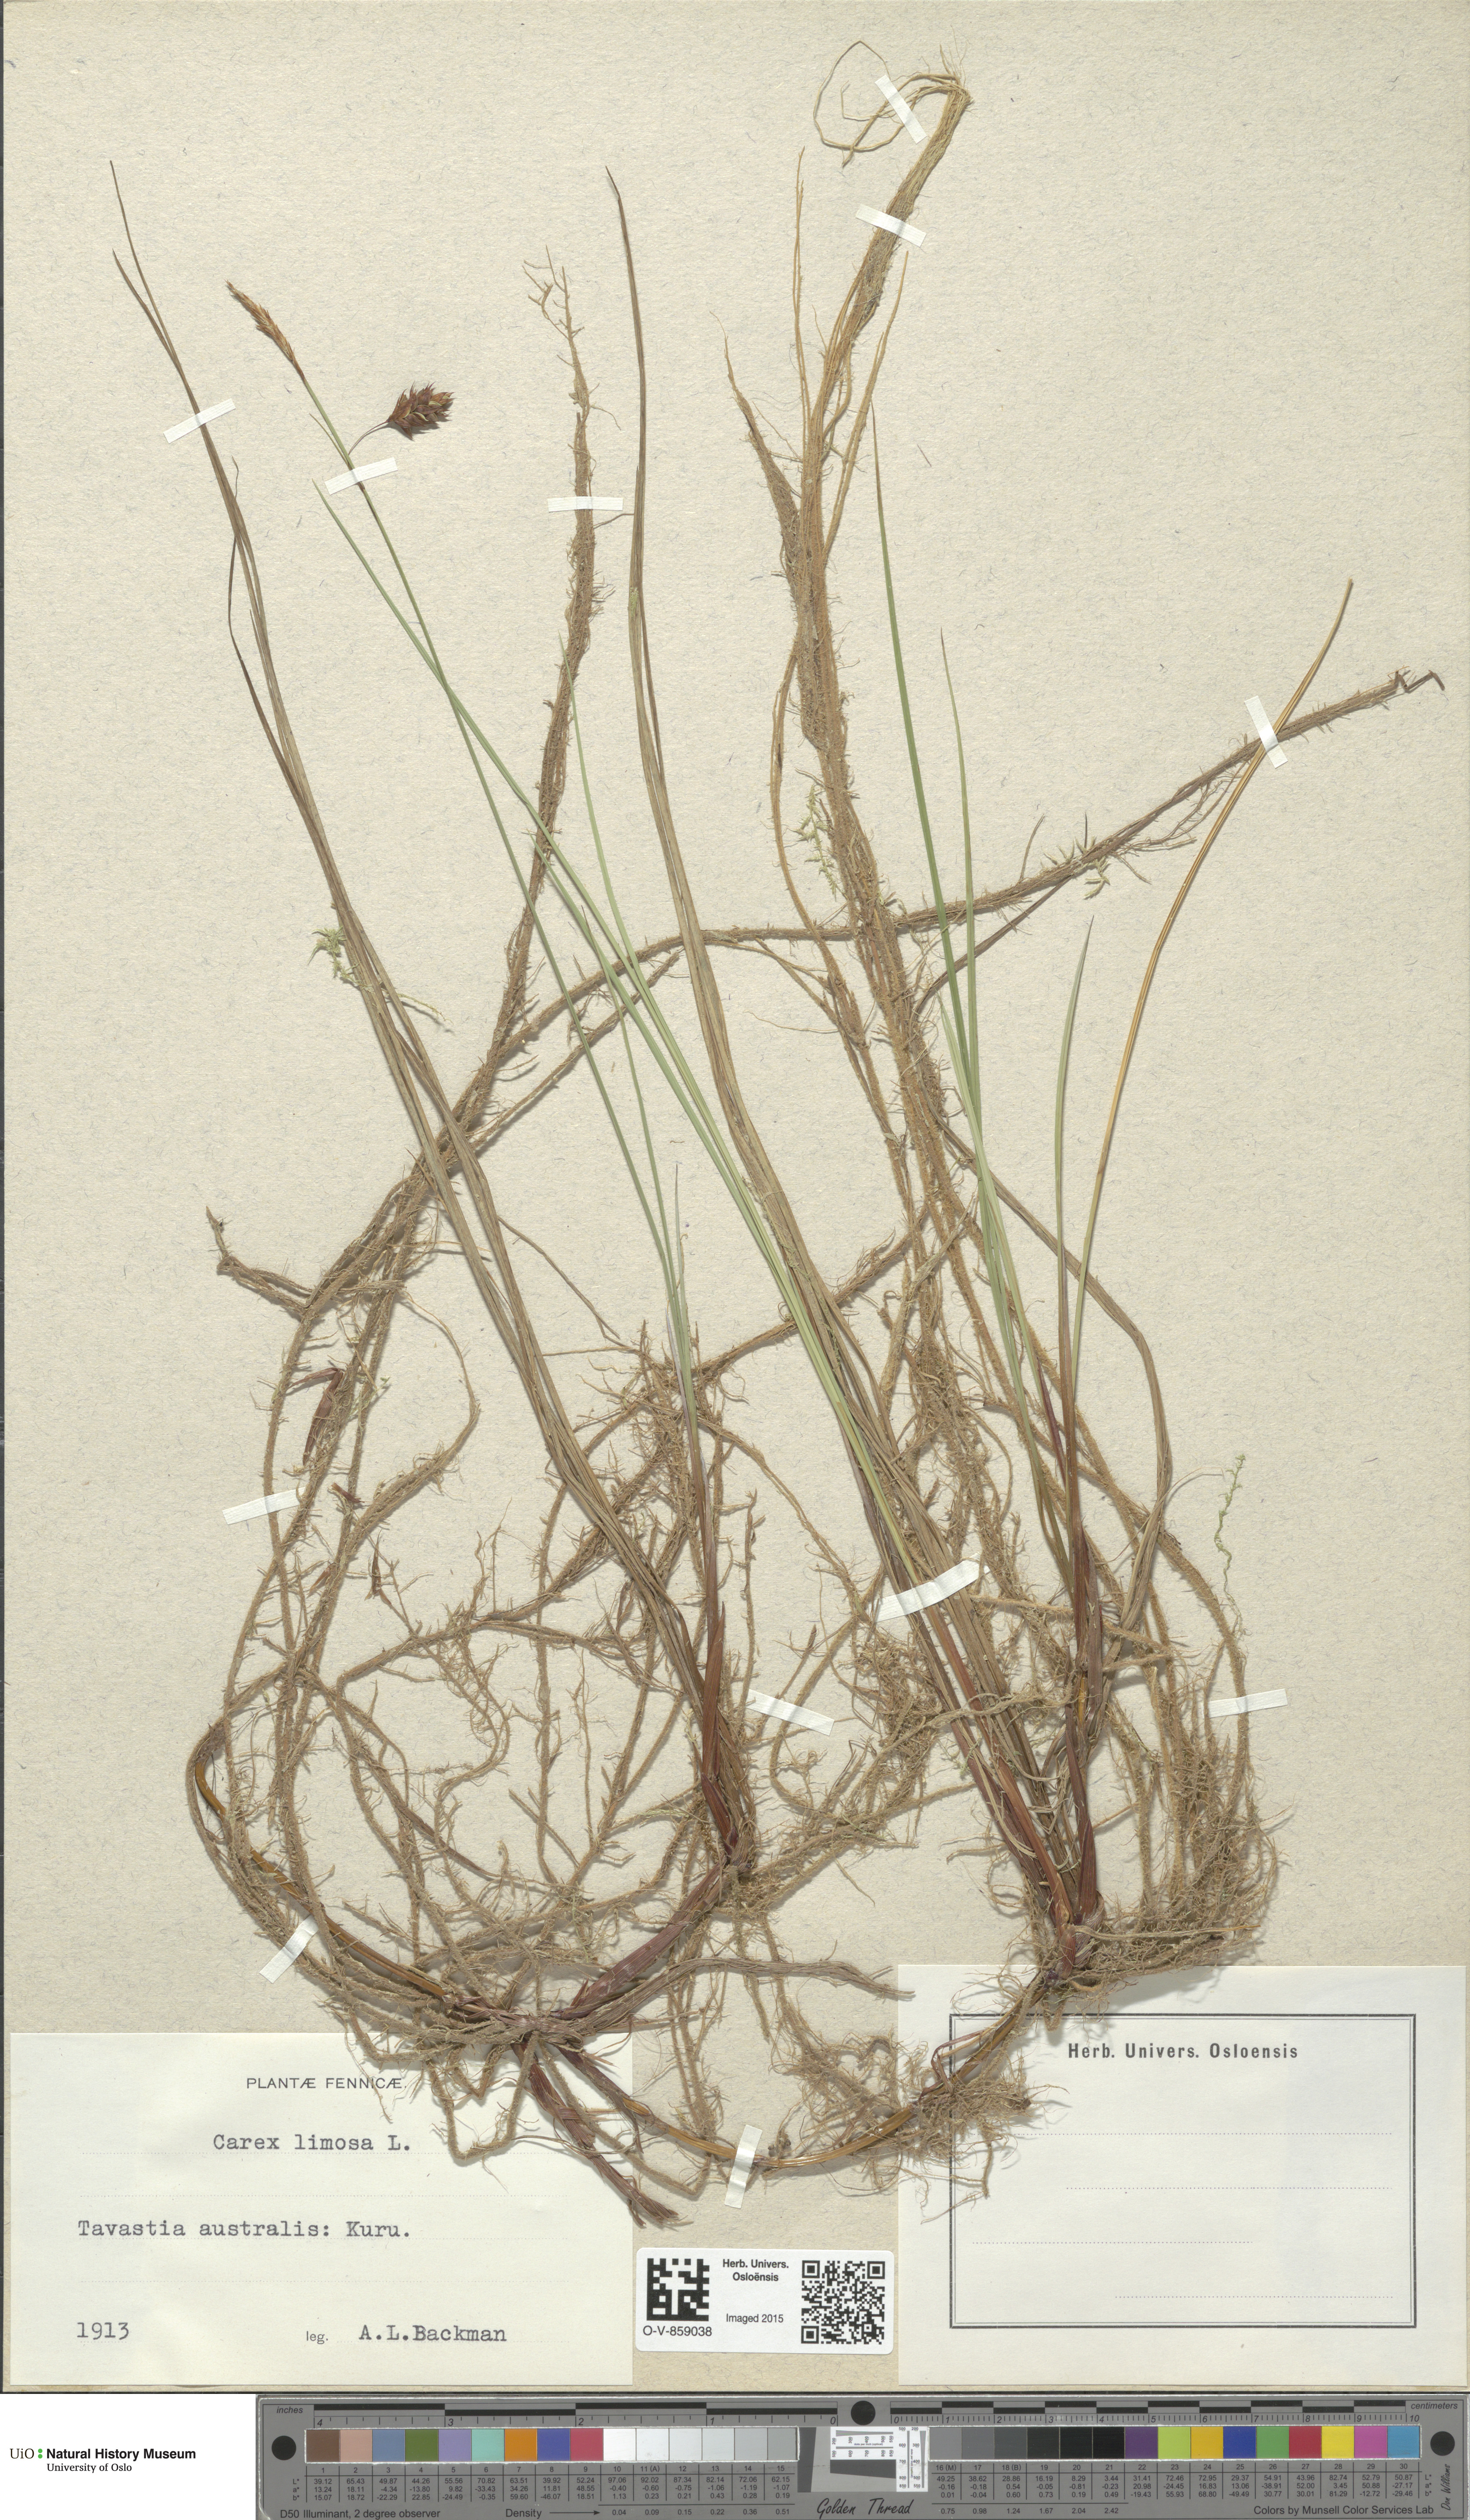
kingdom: Plantae
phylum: Tracheophyta
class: Liliopsida
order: Poales
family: Cyperaceae
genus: Carex
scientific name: Carex limosa
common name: Bog sedge
